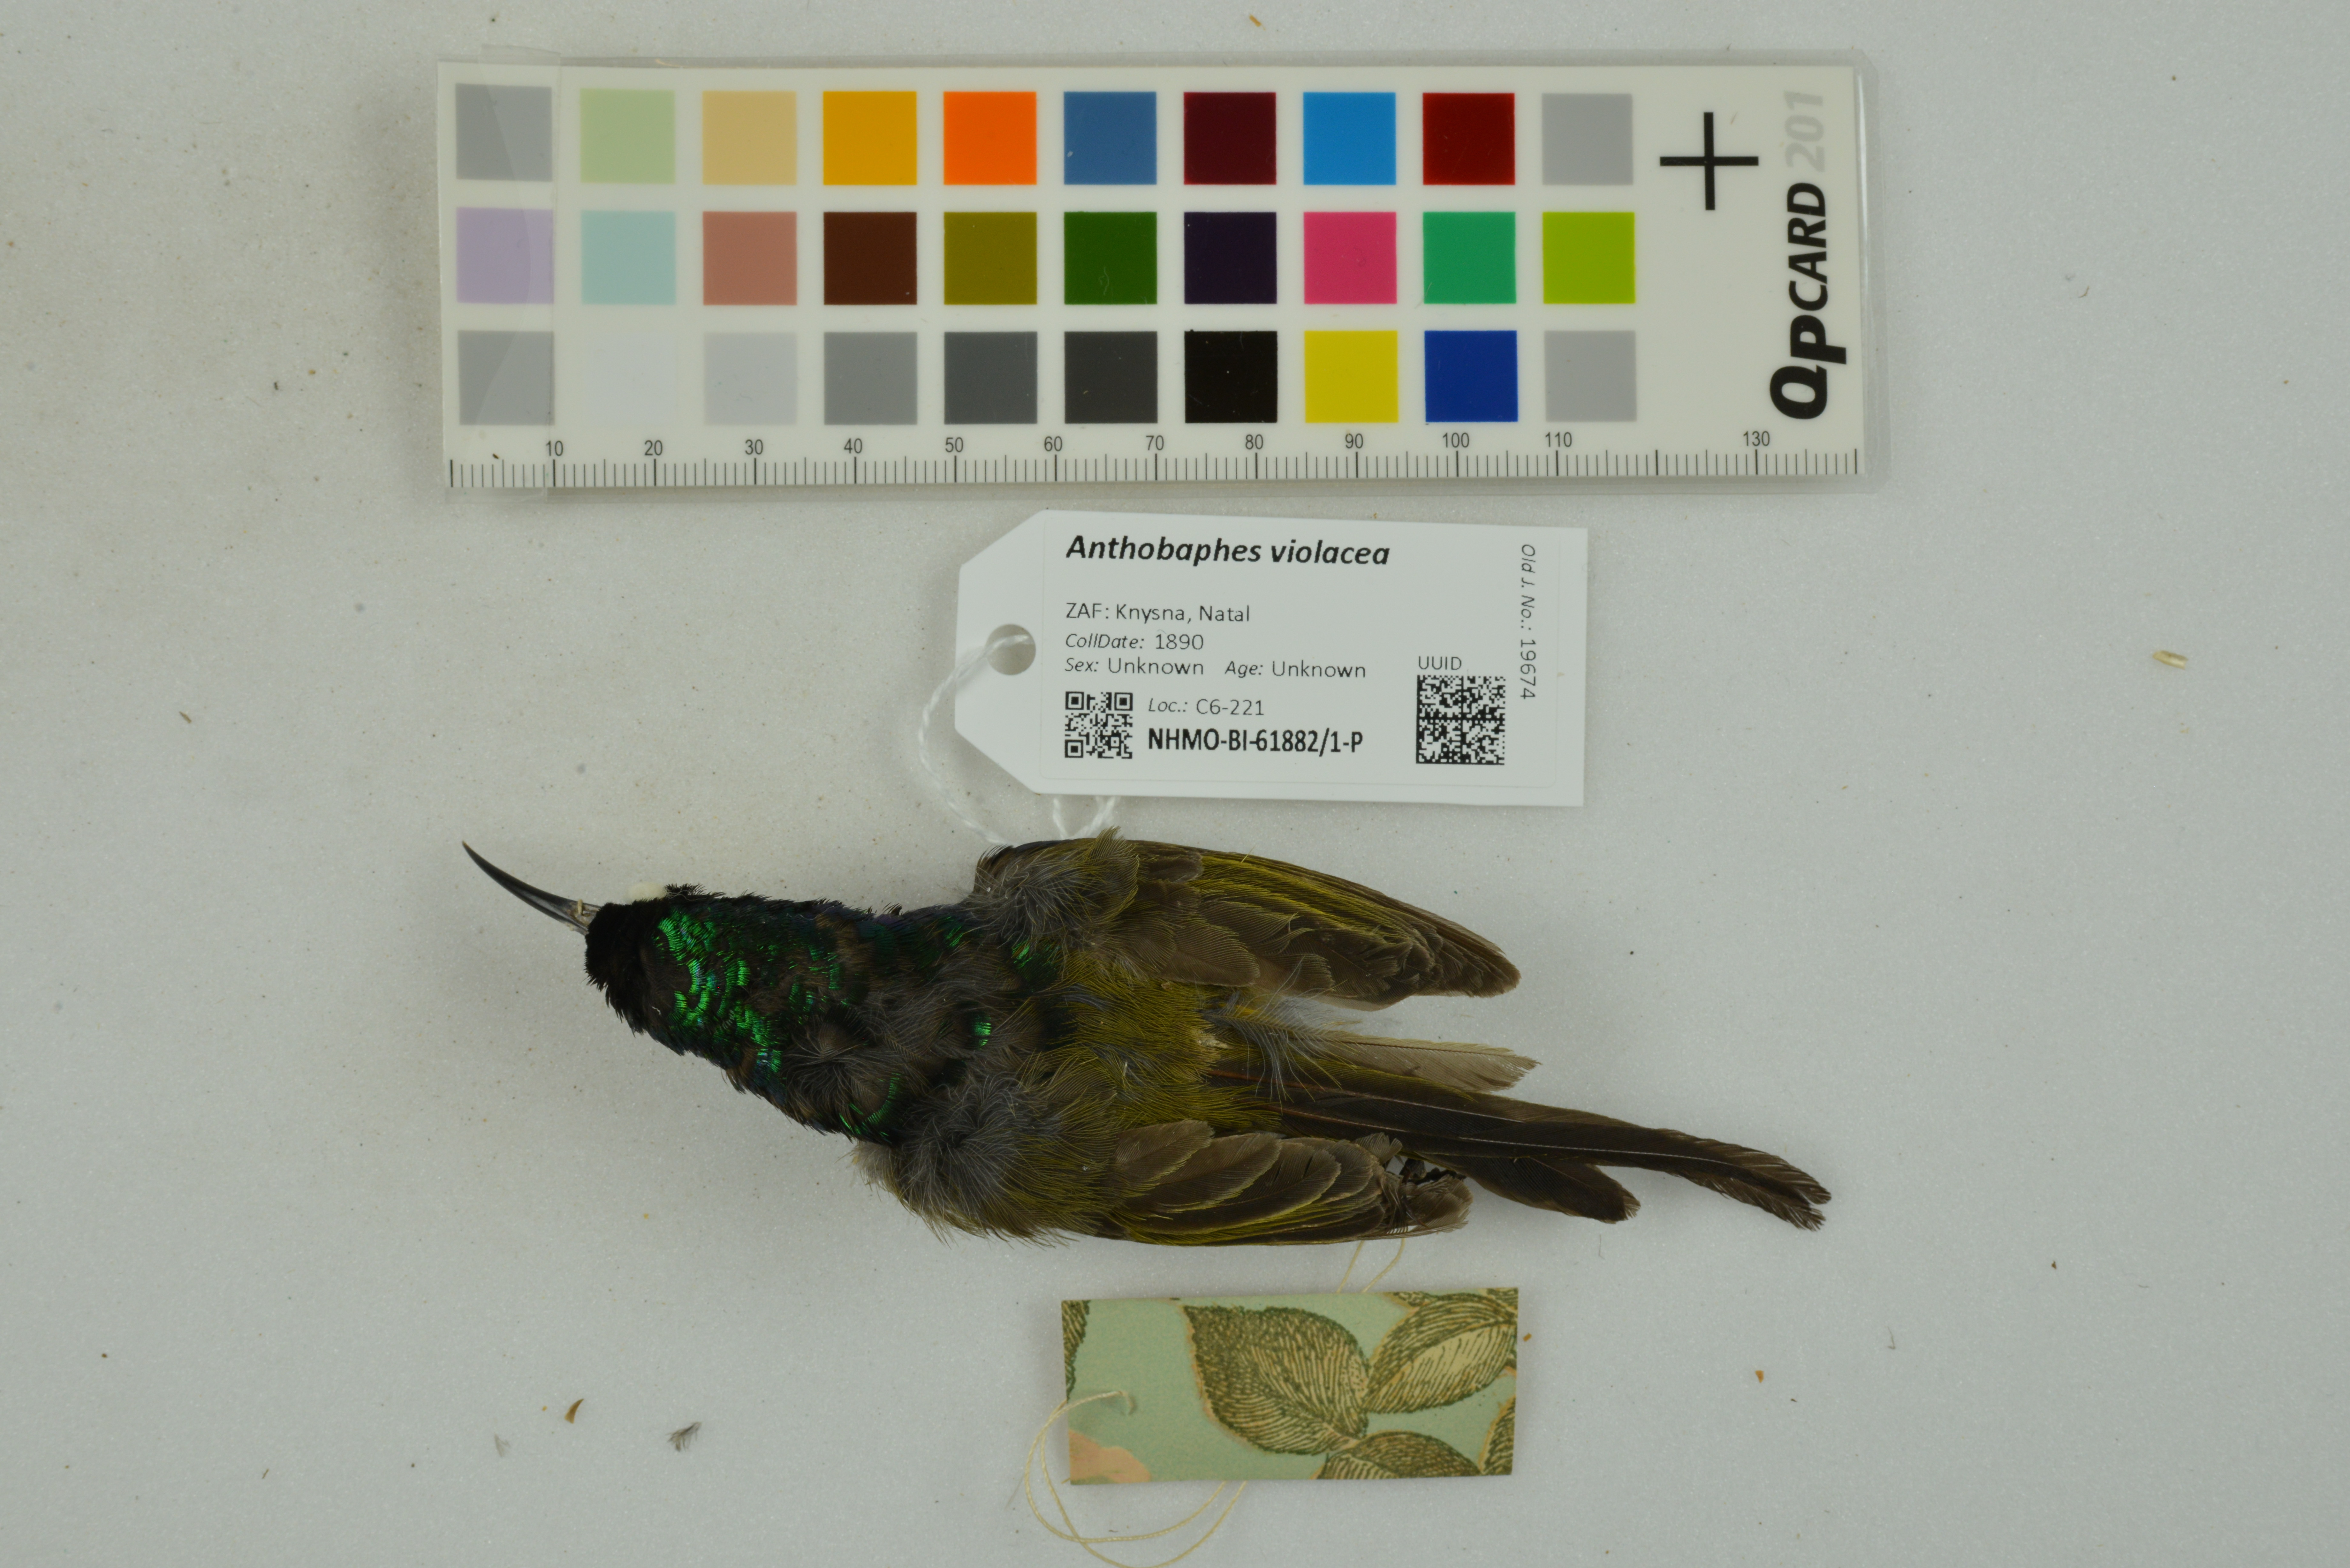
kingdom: Animalia
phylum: Chordata
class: Aves
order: Passeriformes
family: Nectariniidae
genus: Anthobaphes
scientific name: Anthobaphes violacea
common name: Orange-breasted sunbird
